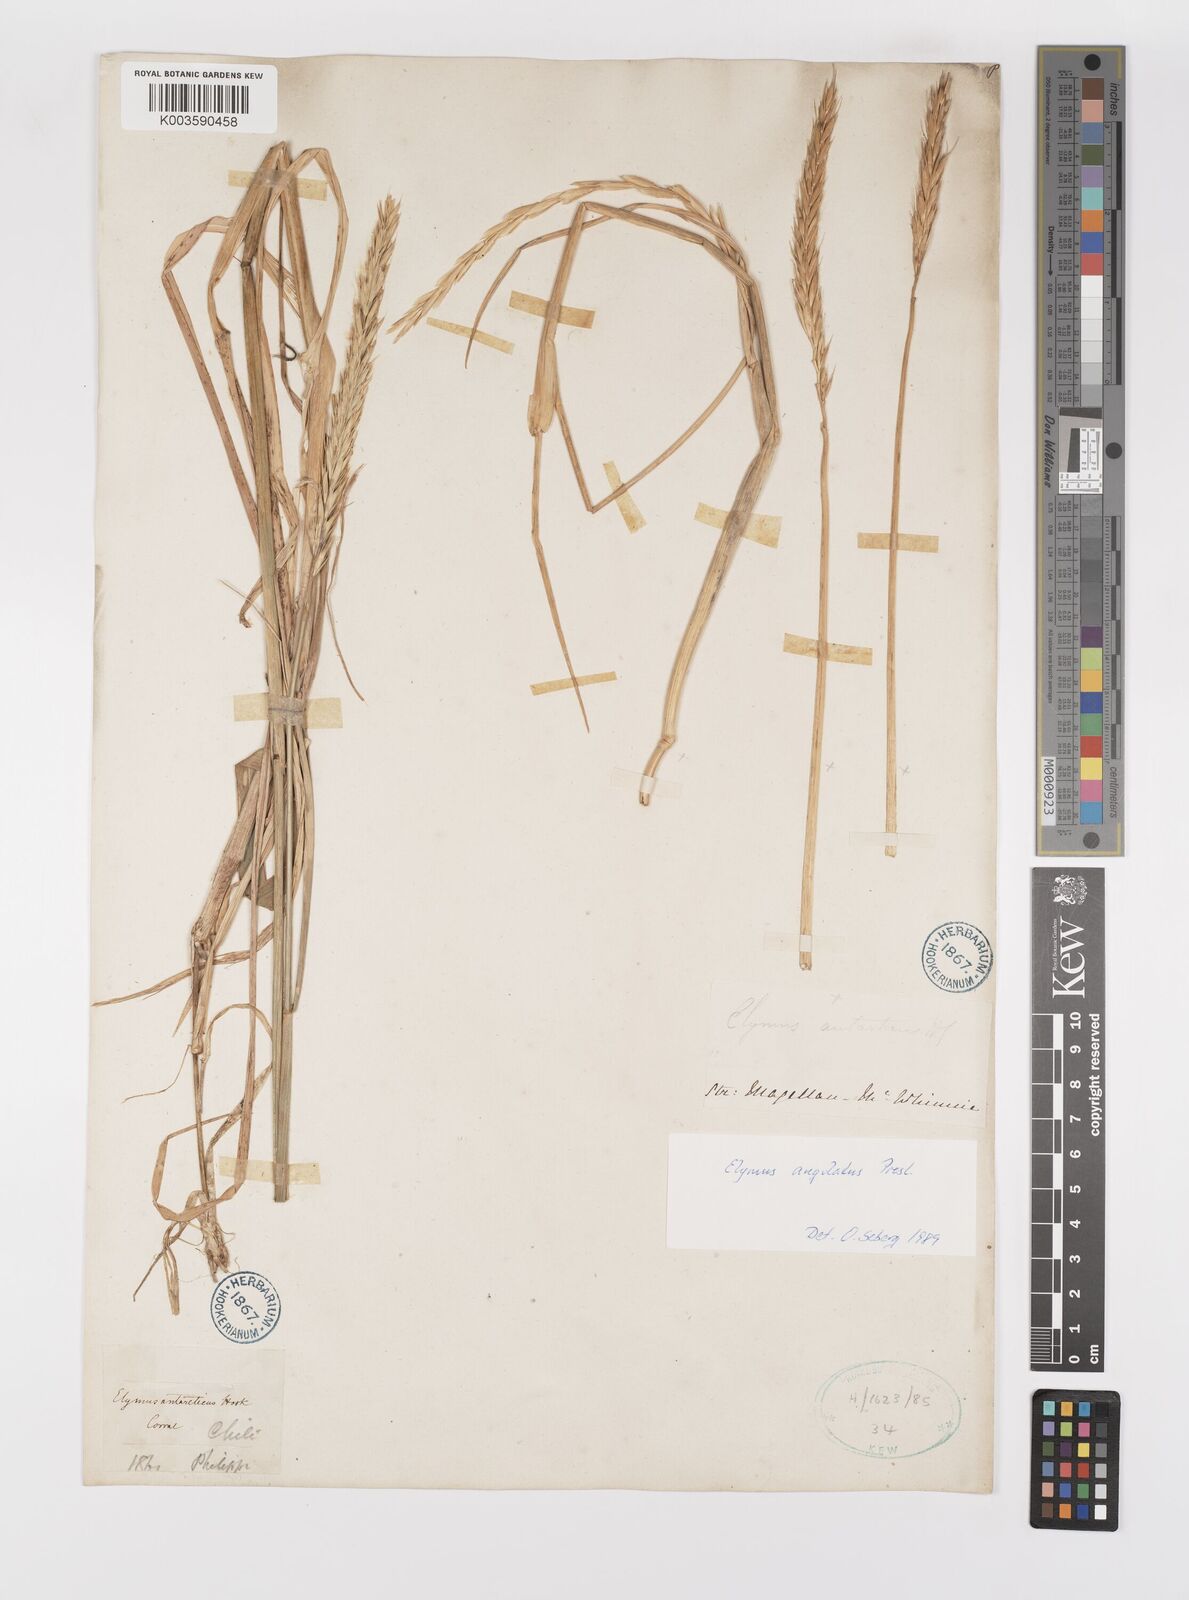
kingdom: Plantae
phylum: Tracheophyta
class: Liliopsida
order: Poales
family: Poaceae
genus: Elymus
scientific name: Elymus angulatus
